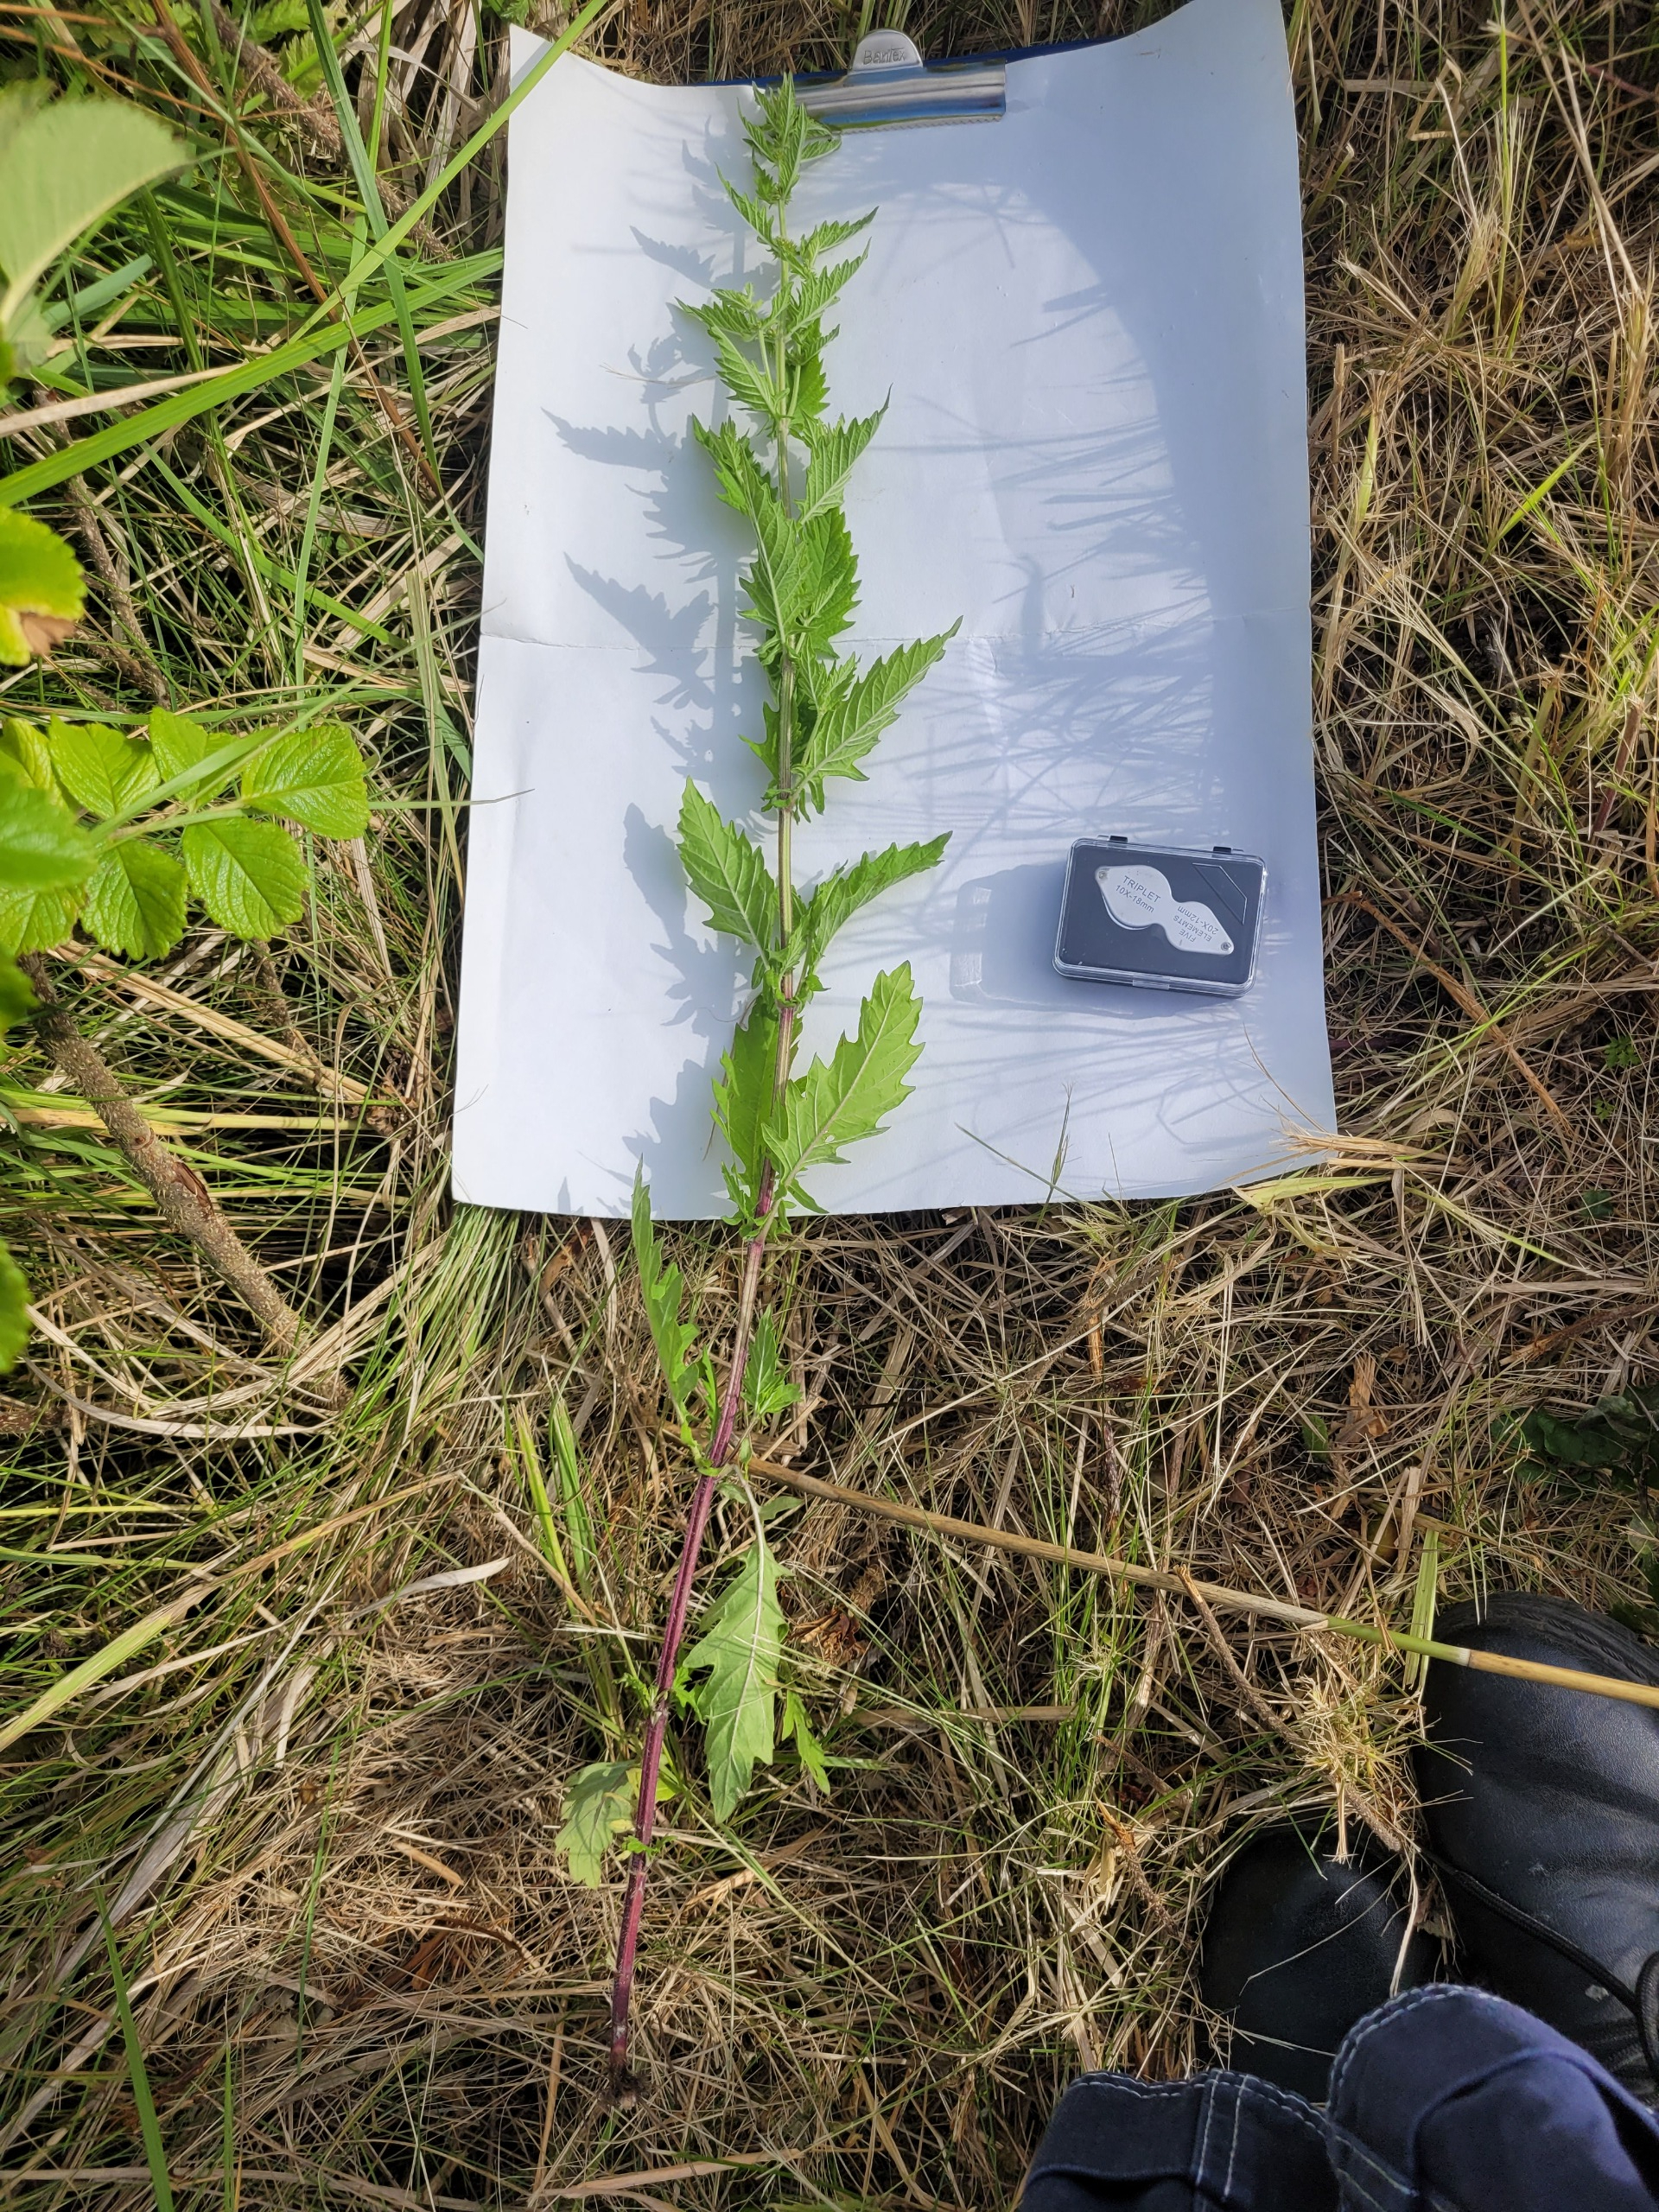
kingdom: Plantae
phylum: Tracheophyta
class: Magnoliopsida
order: Lamiales
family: Lamiaceae
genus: Lycopus
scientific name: Lycopus europaeus
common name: Sværtevæld
